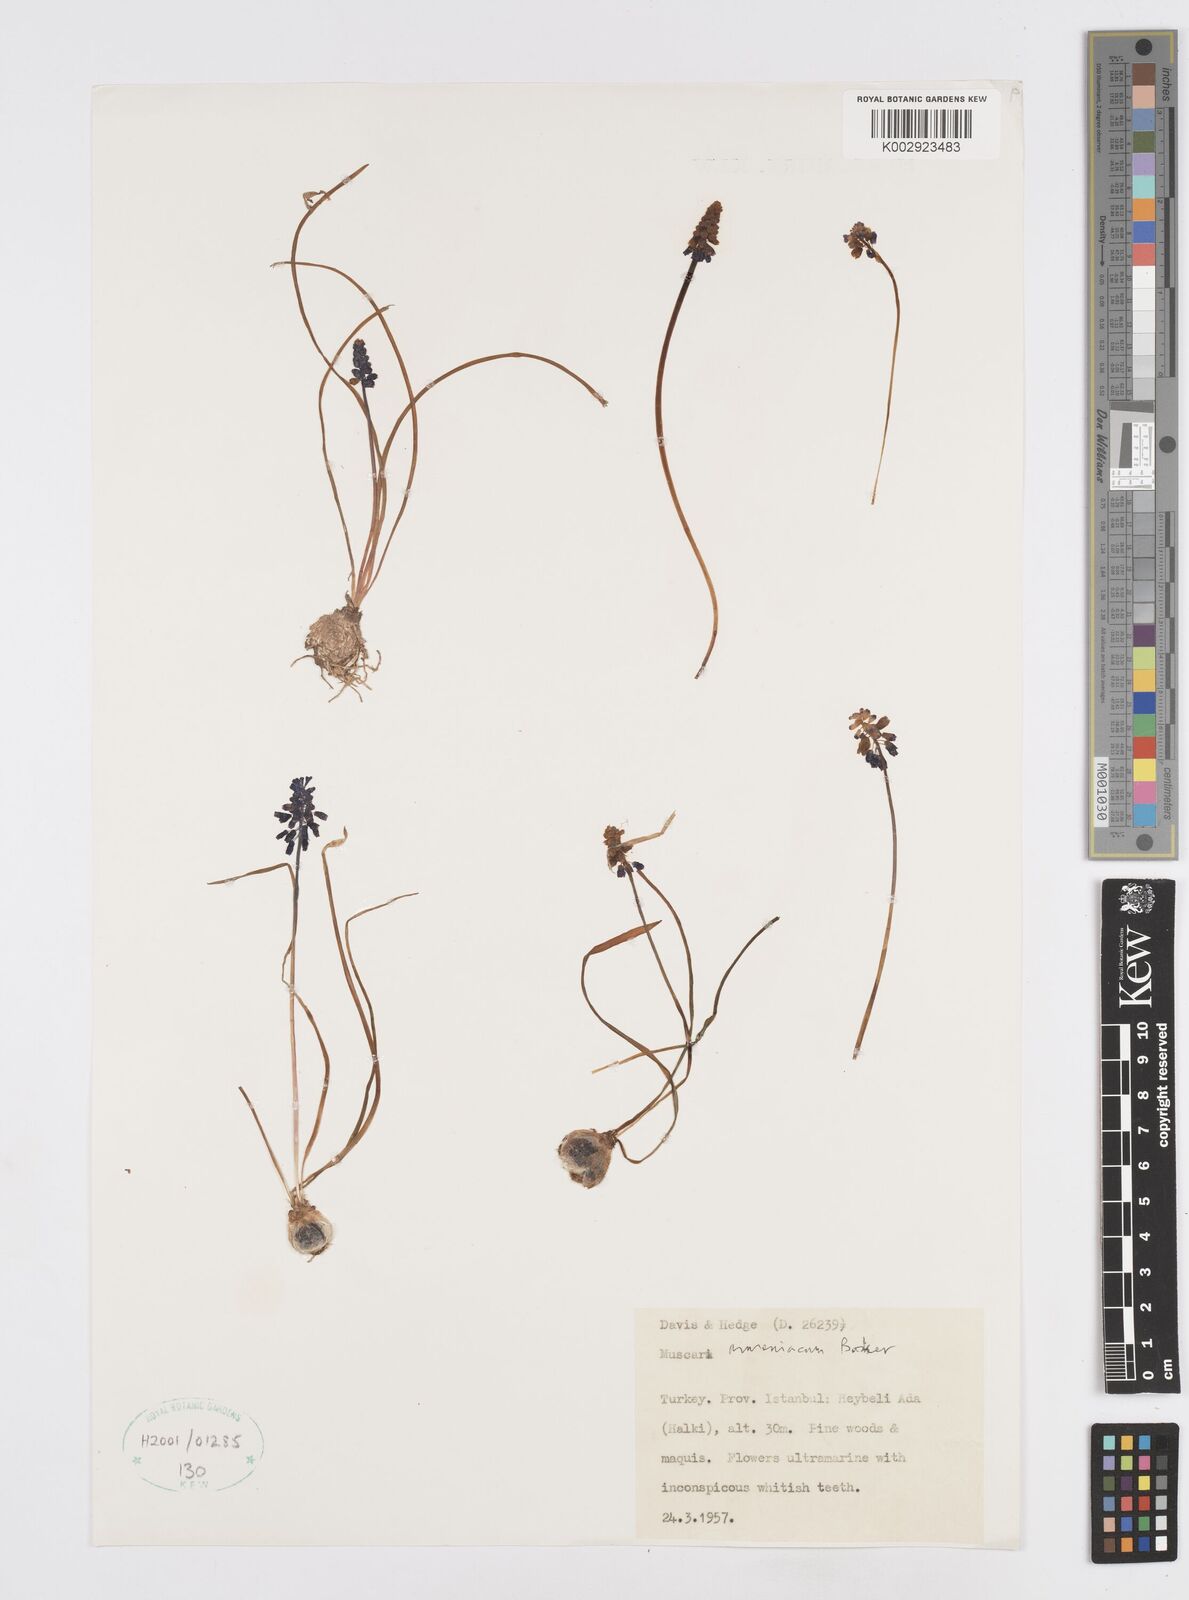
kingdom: Plantae
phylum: Tracheophyta
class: Liliopsida
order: Asparagales
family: Asparagaceae
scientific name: Asparagaceae
